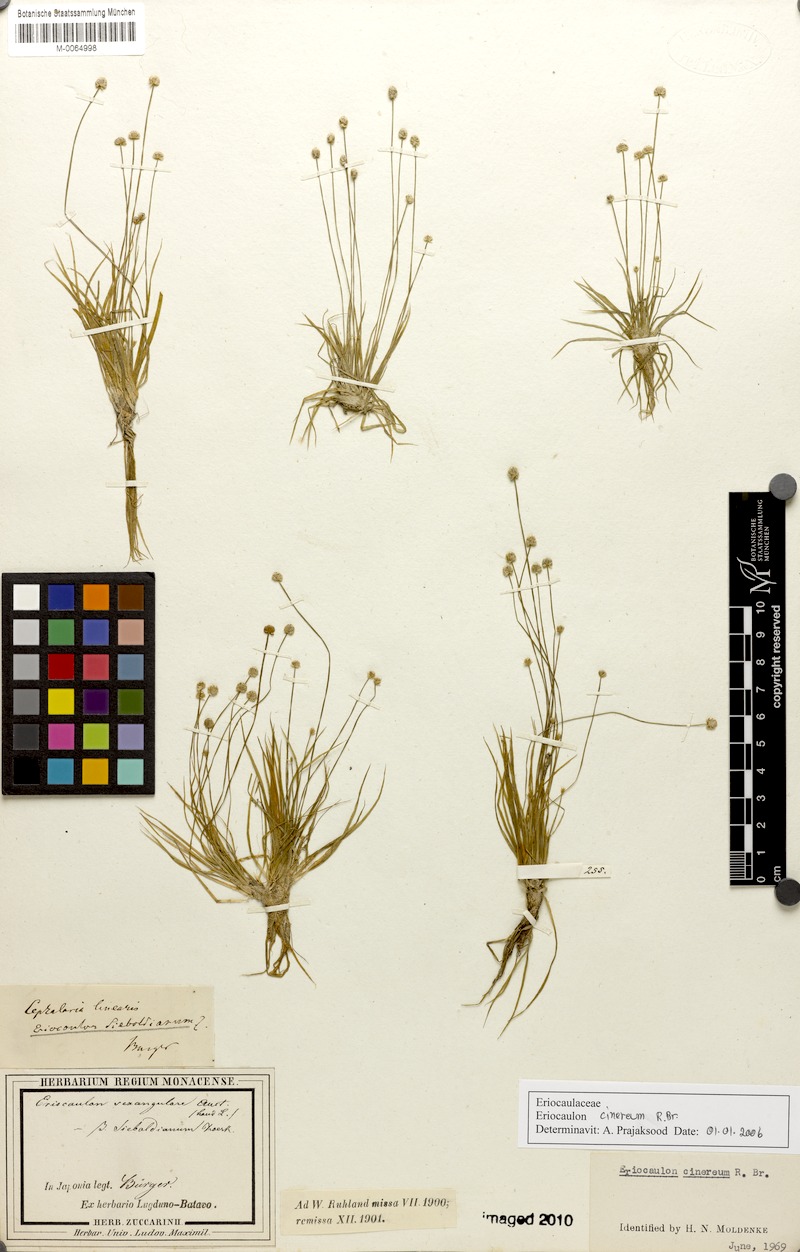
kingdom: Plantae
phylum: Tracheophyta
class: Liliopsida
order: Poales
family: Eriocaulaceae
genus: Eriocaulon
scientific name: Eriocaulon cinereum
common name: Ashy pipewort
